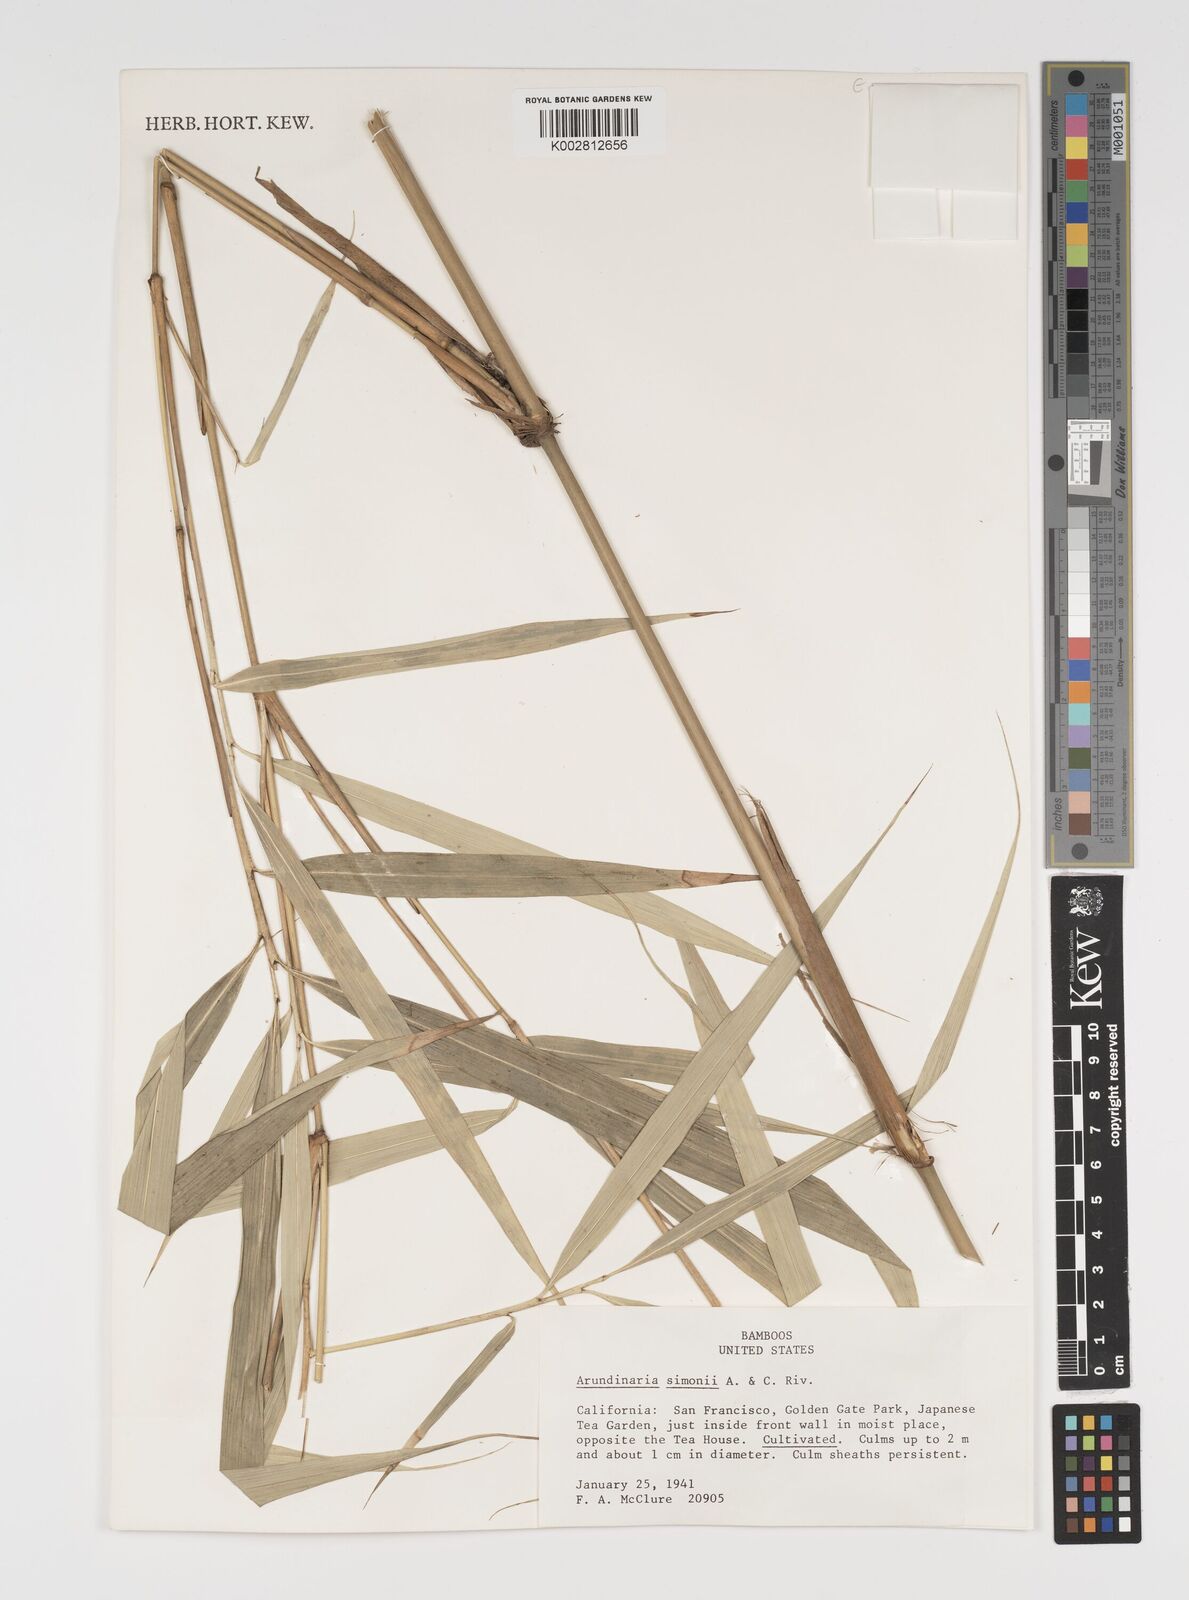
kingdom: Plantae
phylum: Tracheophyta
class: Liliopsida
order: Poales
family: Poaceae
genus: Pleioblastus
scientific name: Pleioblastus simonii
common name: Simon bamboo
